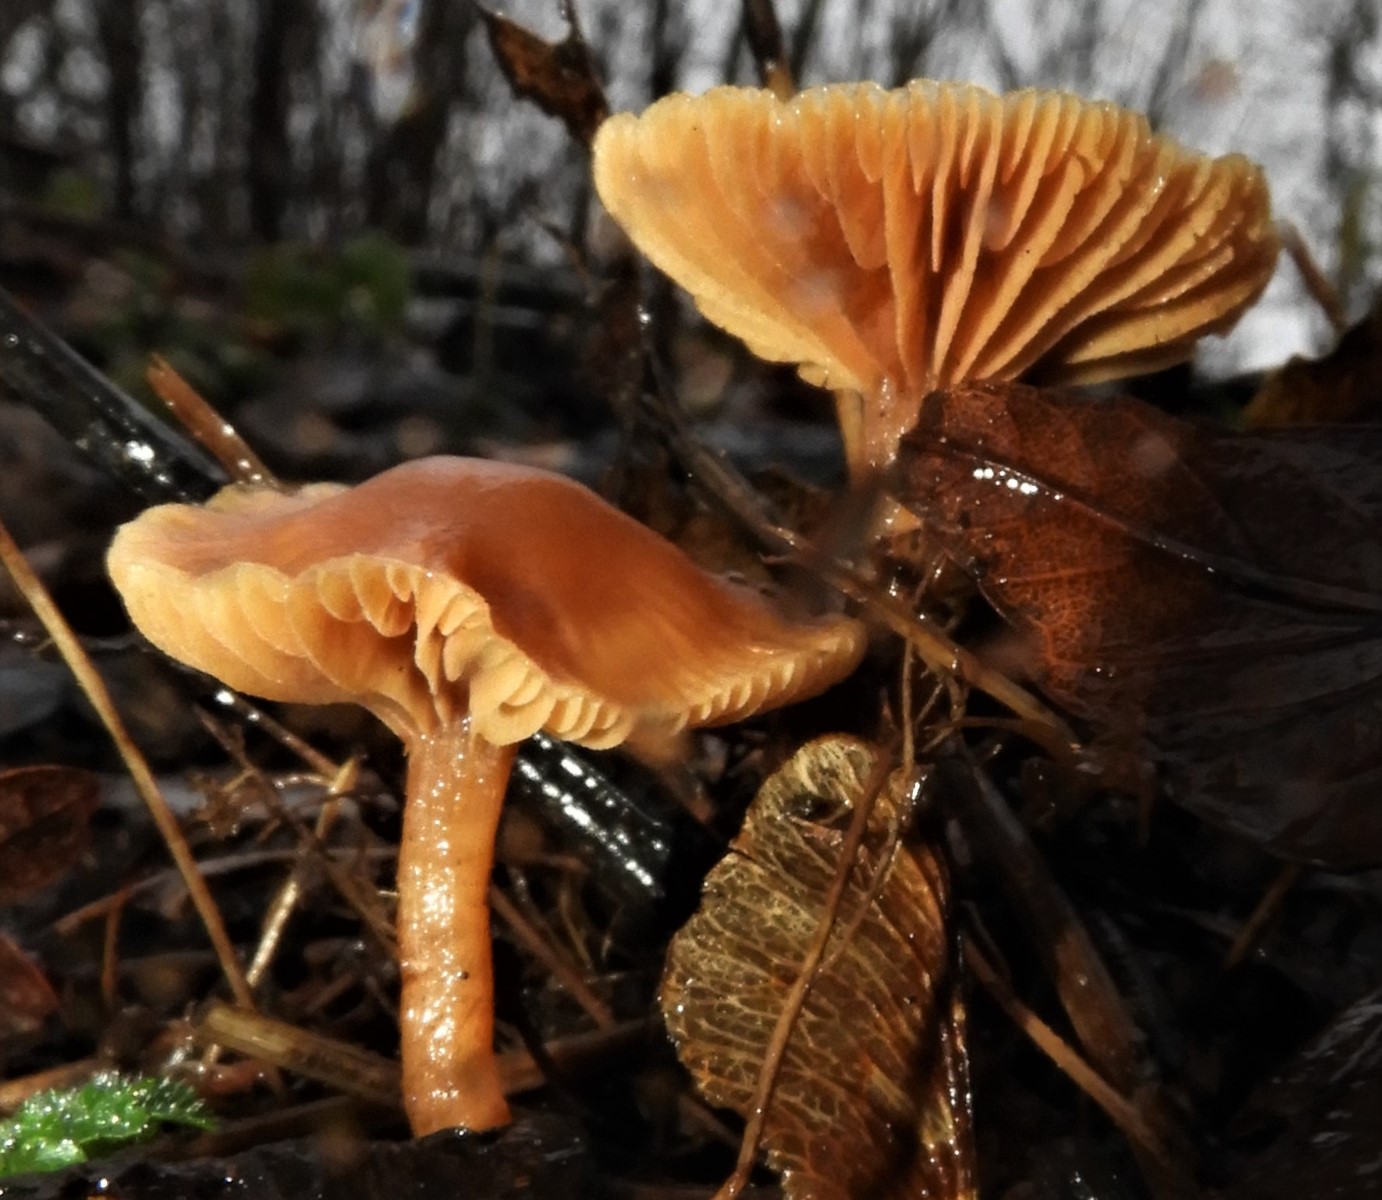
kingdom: Fungi
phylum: Basidiomycota
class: Agaricomycetes
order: Agaricales
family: Tubariaceae
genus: Tubaria
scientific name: Tubaria furfuracea
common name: kliddet fnughat
